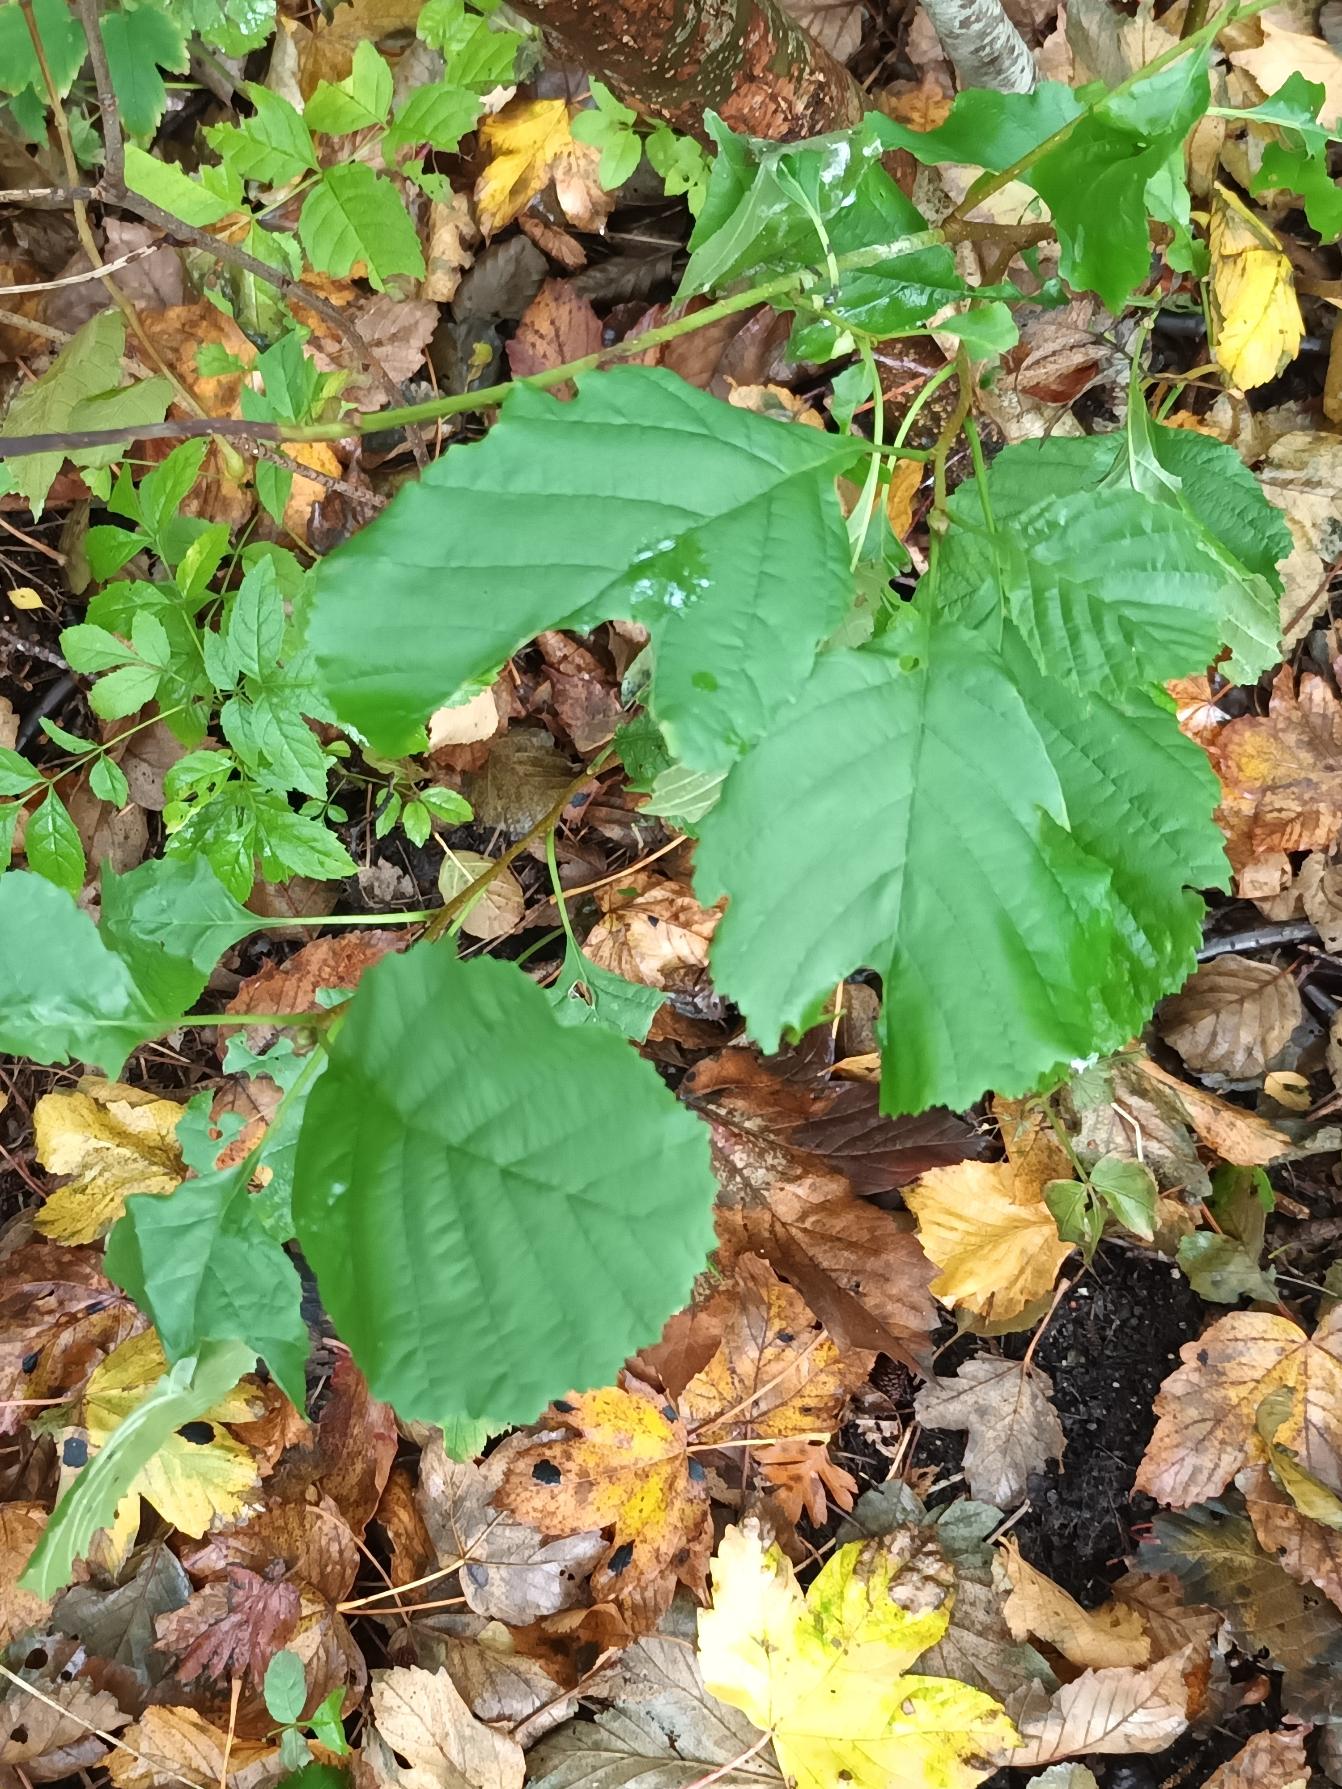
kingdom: Plantae
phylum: Tracheophyta
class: Magnoliopsida
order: Fagales
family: Betulaceae
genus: Alnus
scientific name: Alnus glutinosa
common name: Rød-el
